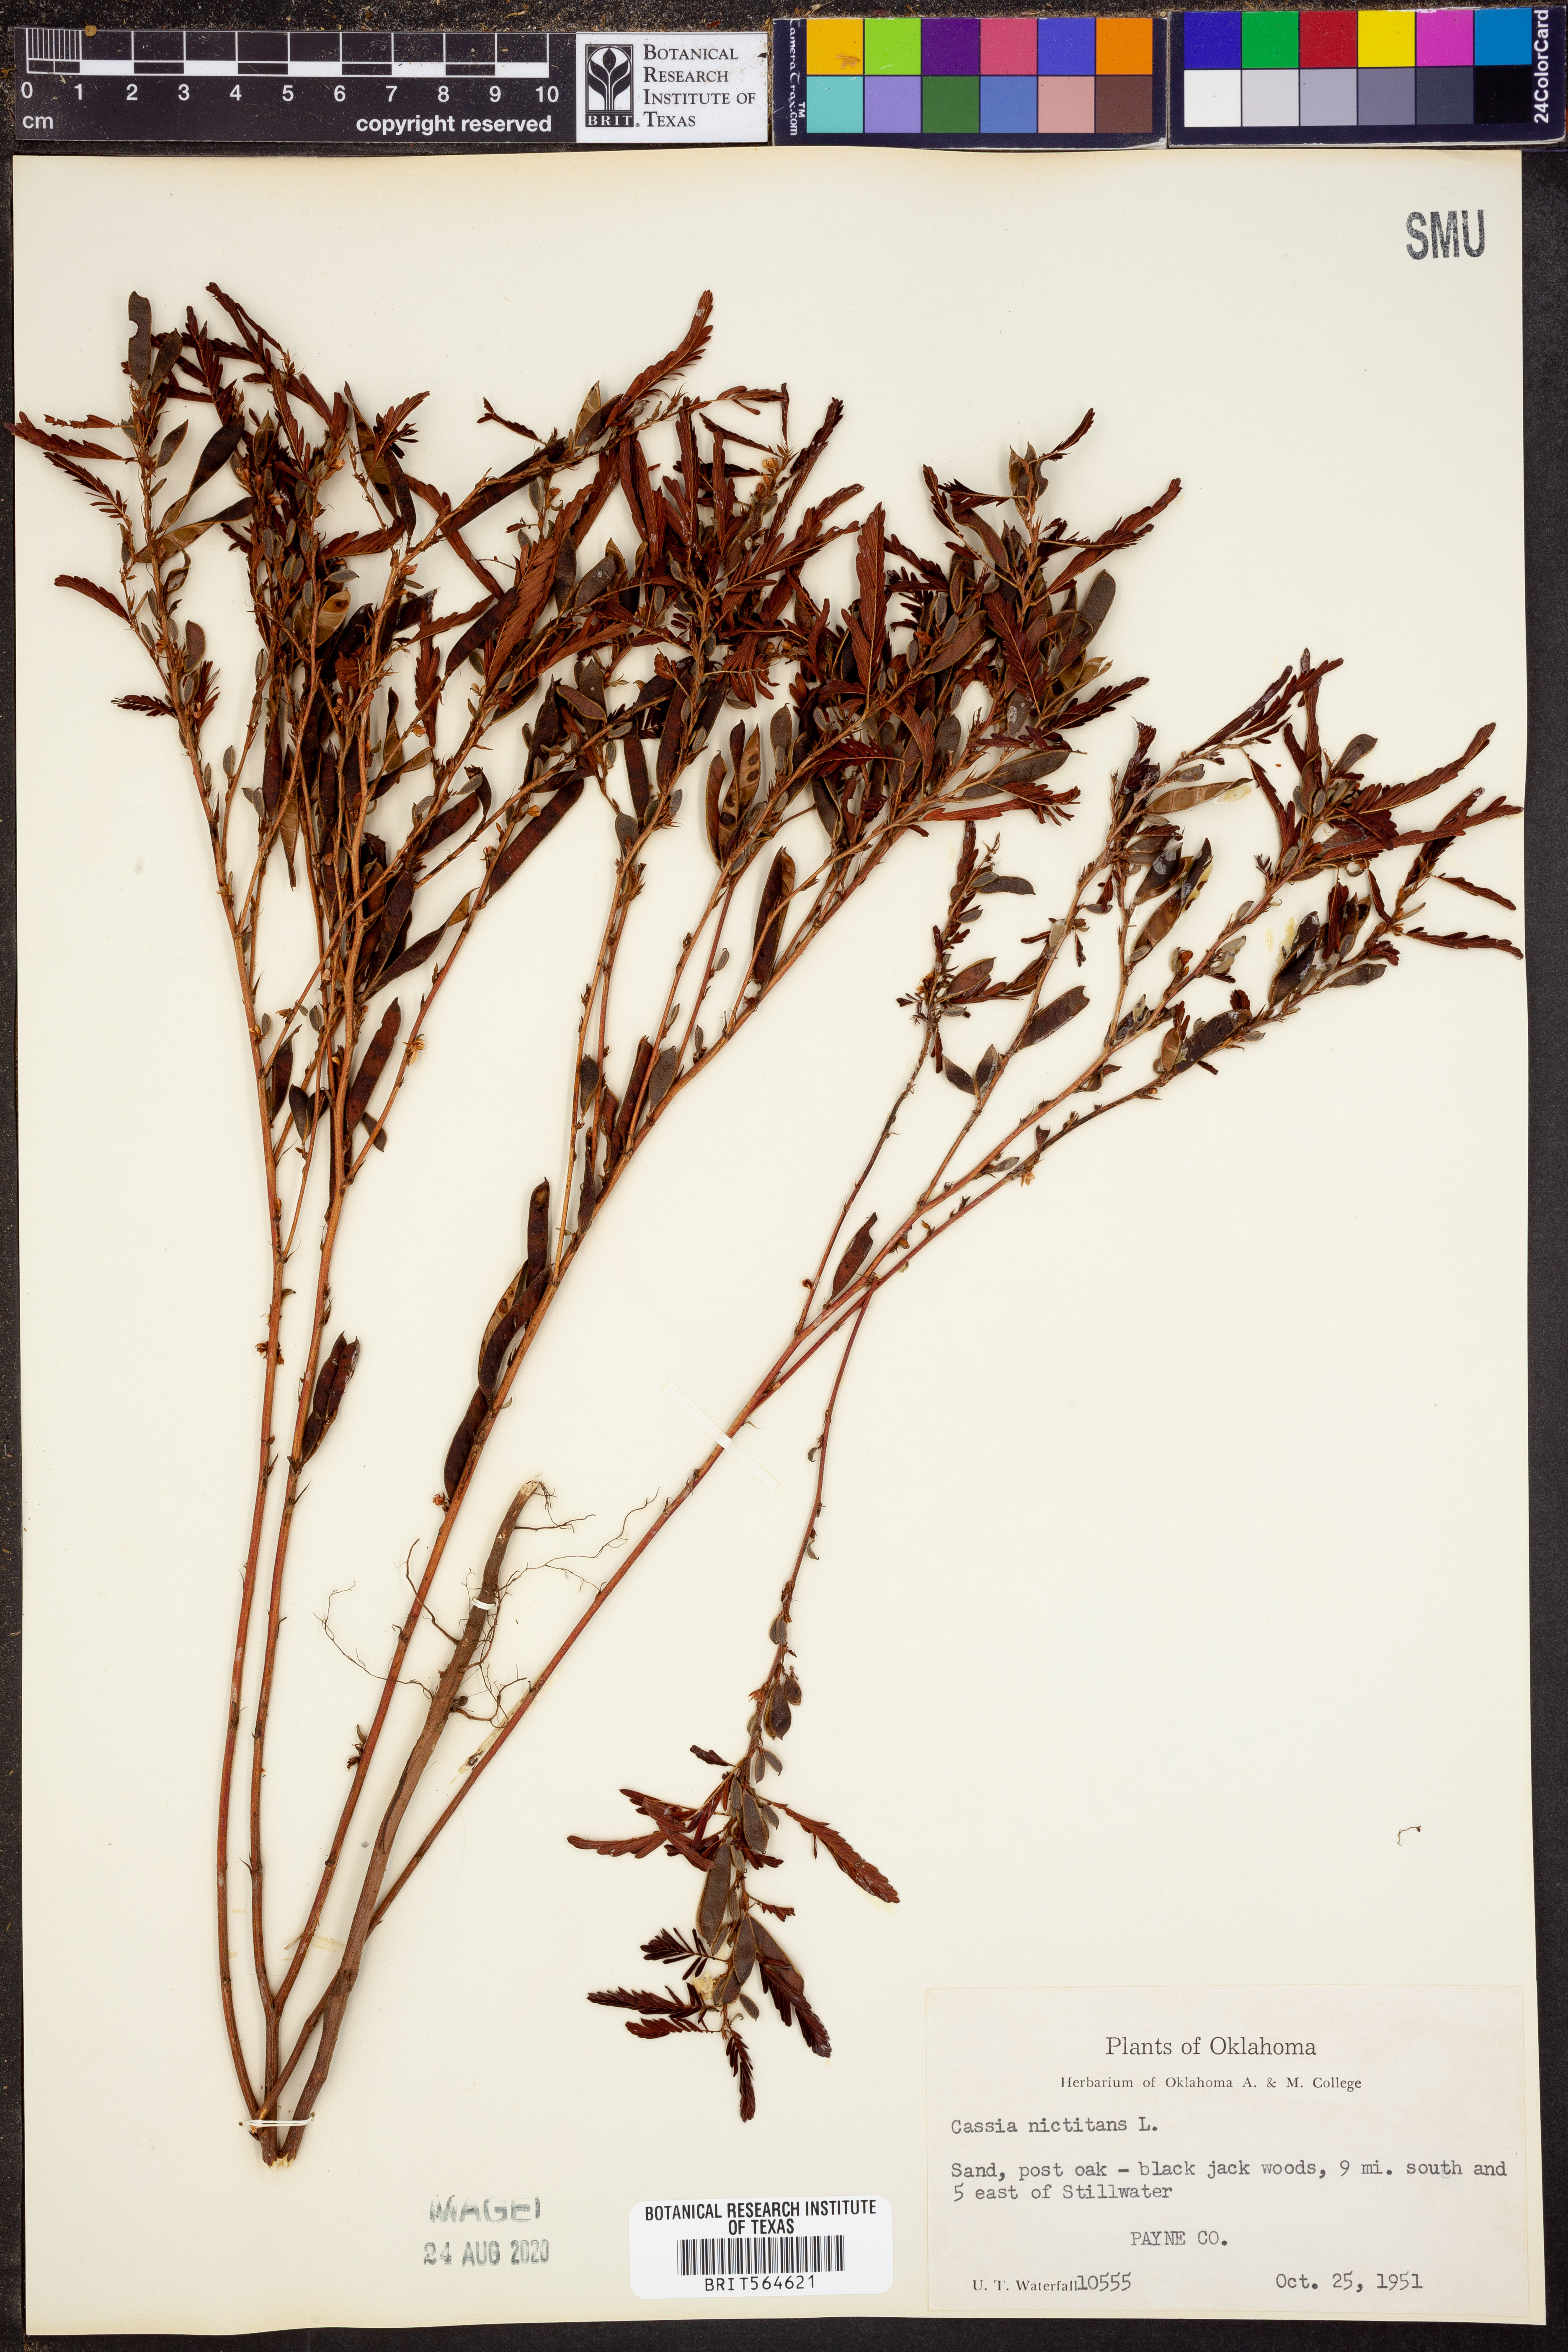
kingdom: Plantae
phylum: Tracheophyta
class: Magnoliopsida
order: Fabales
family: Fabaceae
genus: Chamaecrista
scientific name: Chamaecrista nictitans
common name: Sensitive cassia
